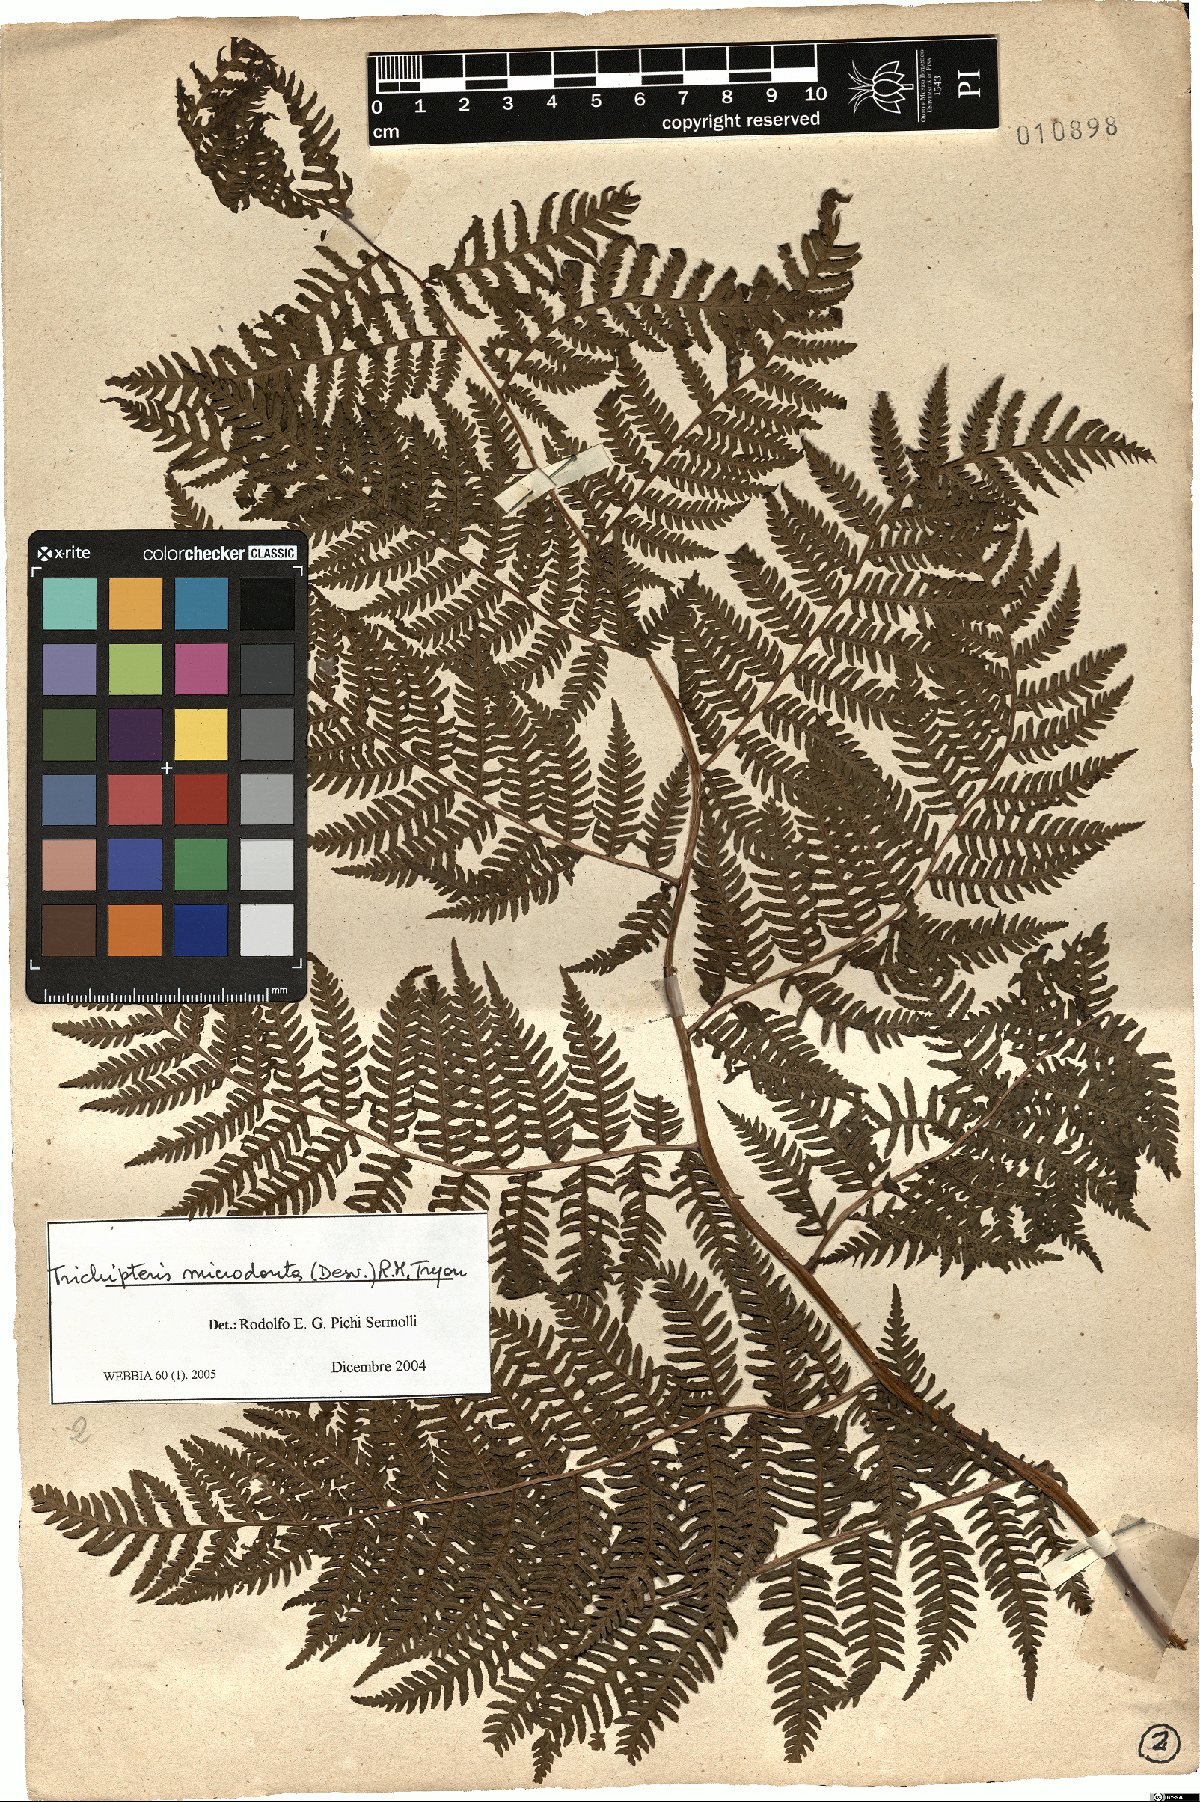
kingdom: Plantae
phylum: Tracheophyta
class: Polypodiopsida
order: Cyatheales
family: Cyatheaceae
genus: Cyathea
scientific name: Cyathea microdonta
